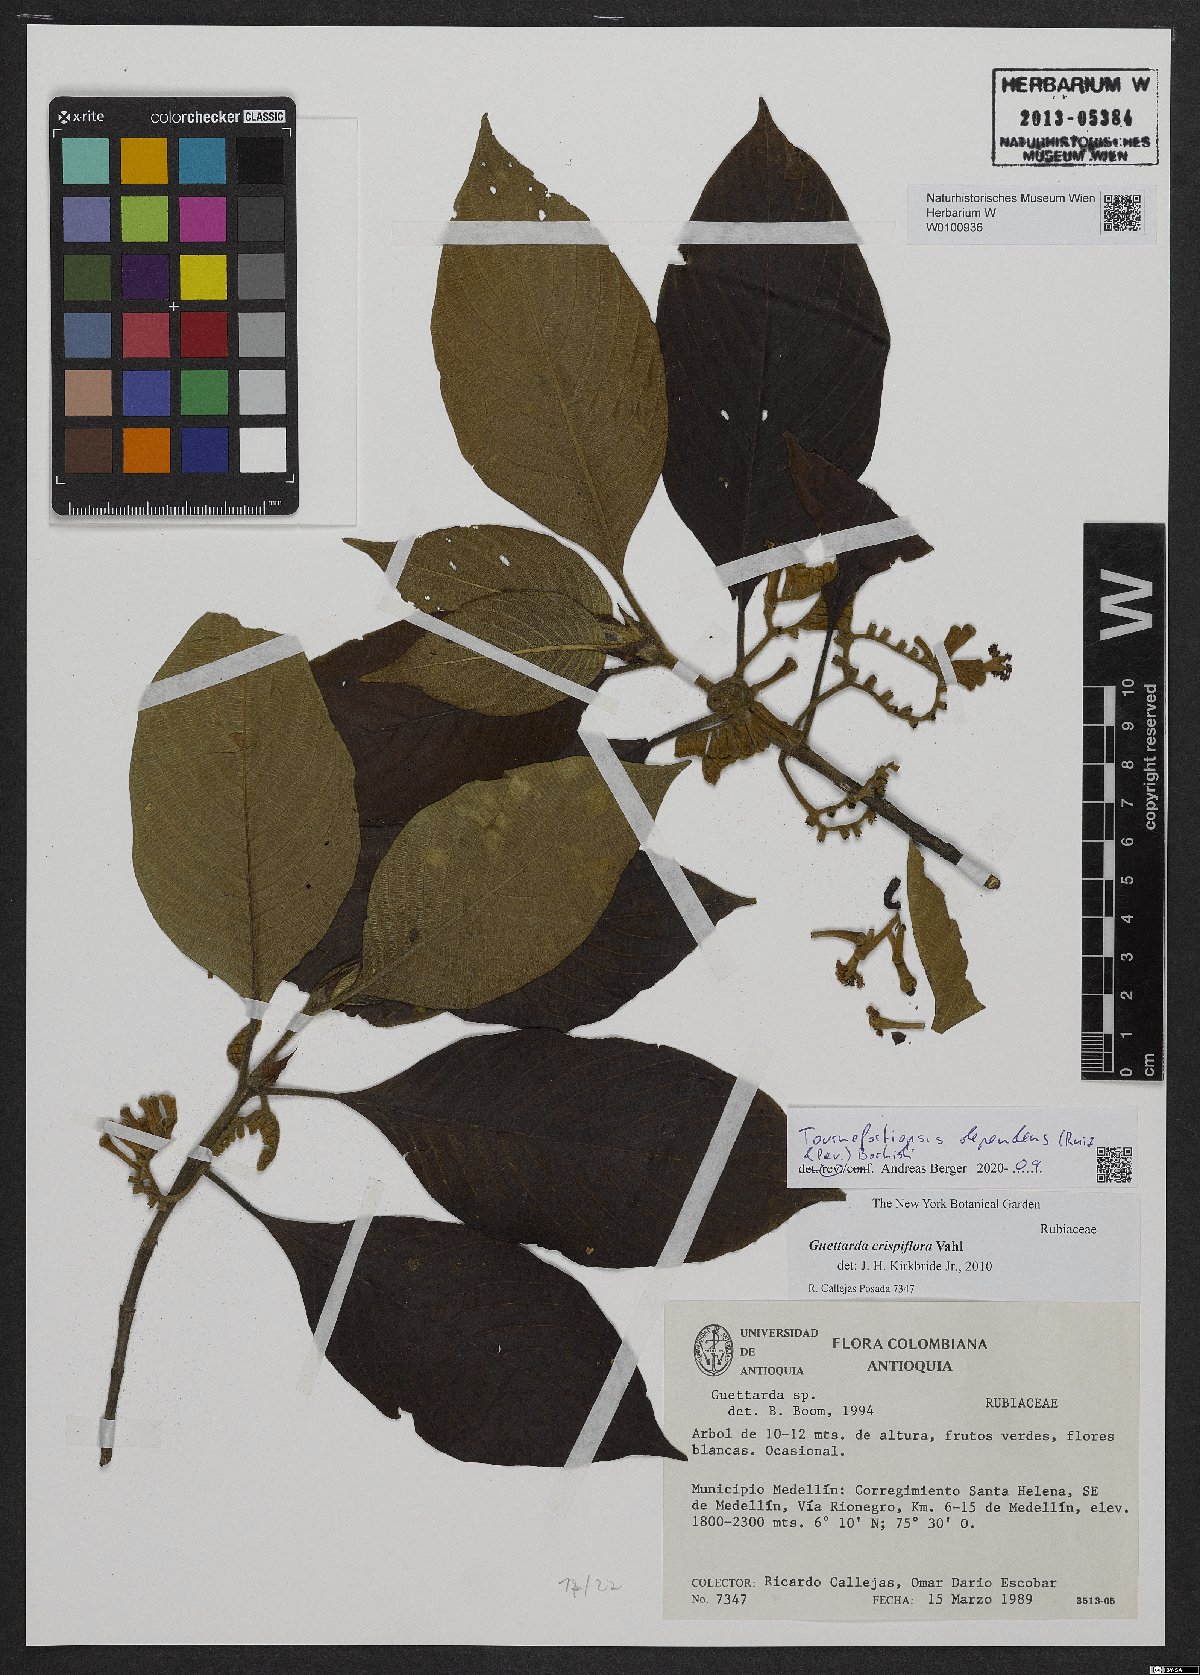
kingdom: Plantae
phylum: Tracheophyta
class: Magnoliopsida
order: Gentianales
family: Rubiaceae
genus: Tournefortiopsis
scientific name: Tournefortiopsis dependens
